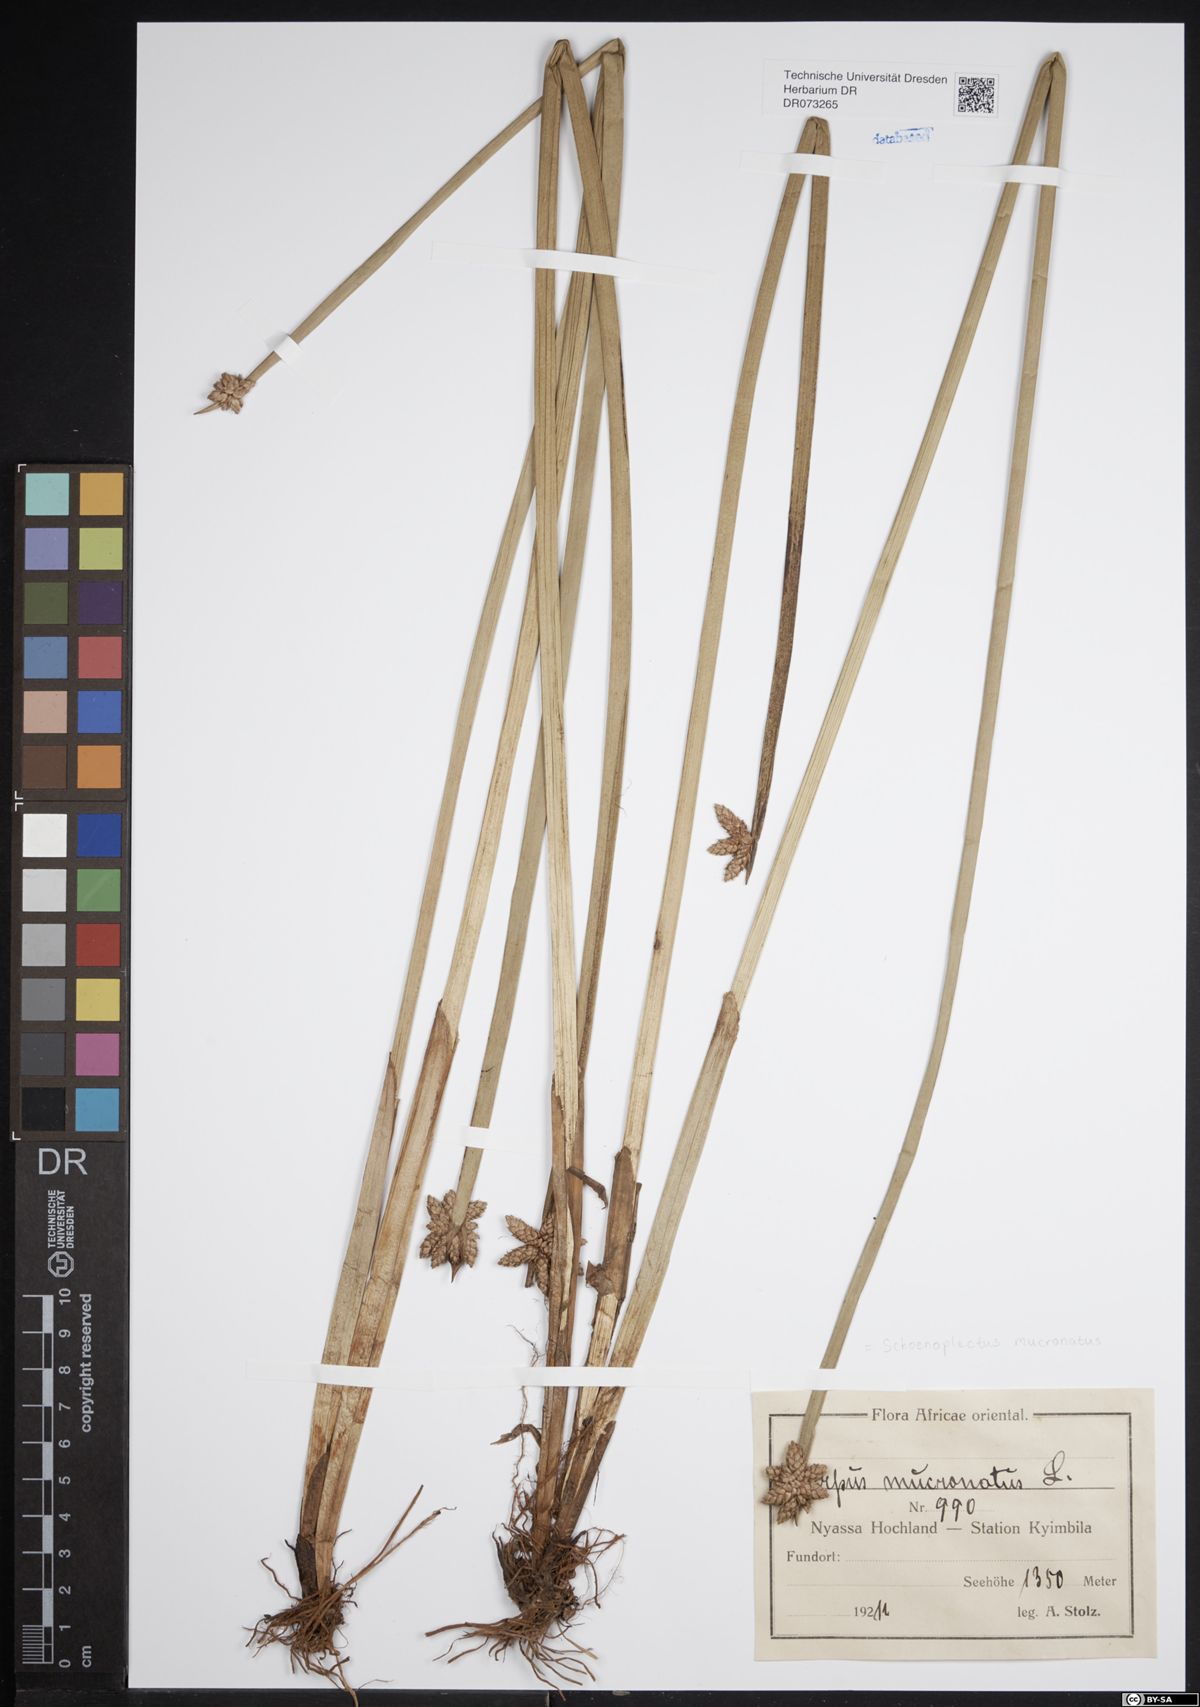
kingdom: Plantae
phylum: Tracheophyta
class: Liliopsida
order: Poales
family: Cyperaceae
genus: Schoenoplectiella
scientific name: Schoenoplectiella mucronata
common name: Bog bulrush
